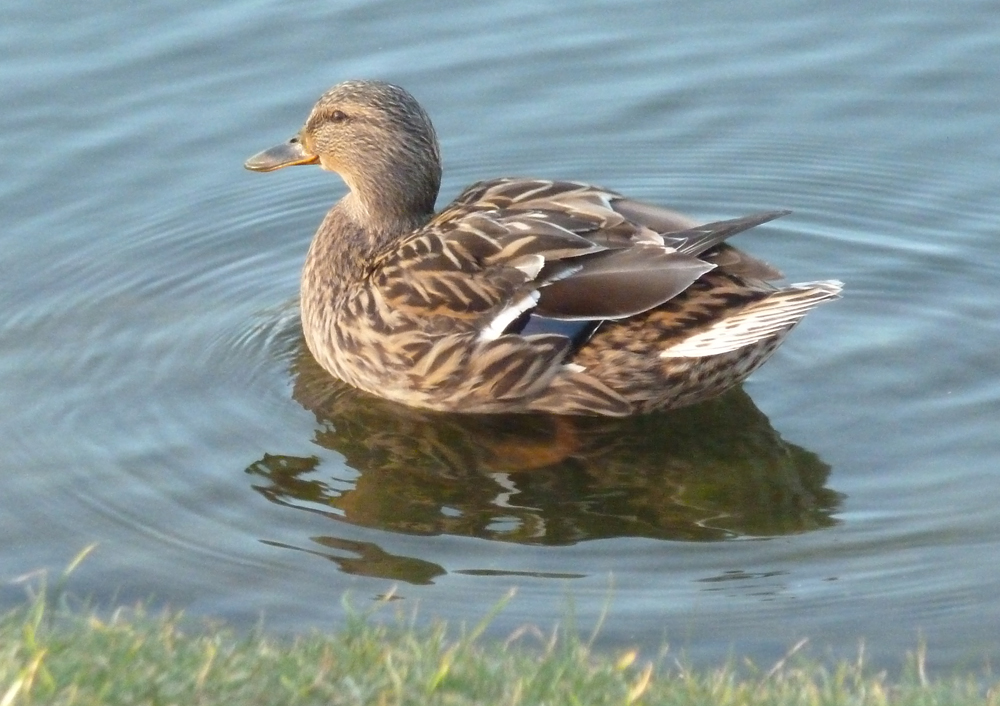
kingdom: Animalia
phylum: Chordata
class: Aves
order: Anseriformes
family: Anatidae
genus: Anas
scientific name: Anas platyrhynchos
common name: Mallard
